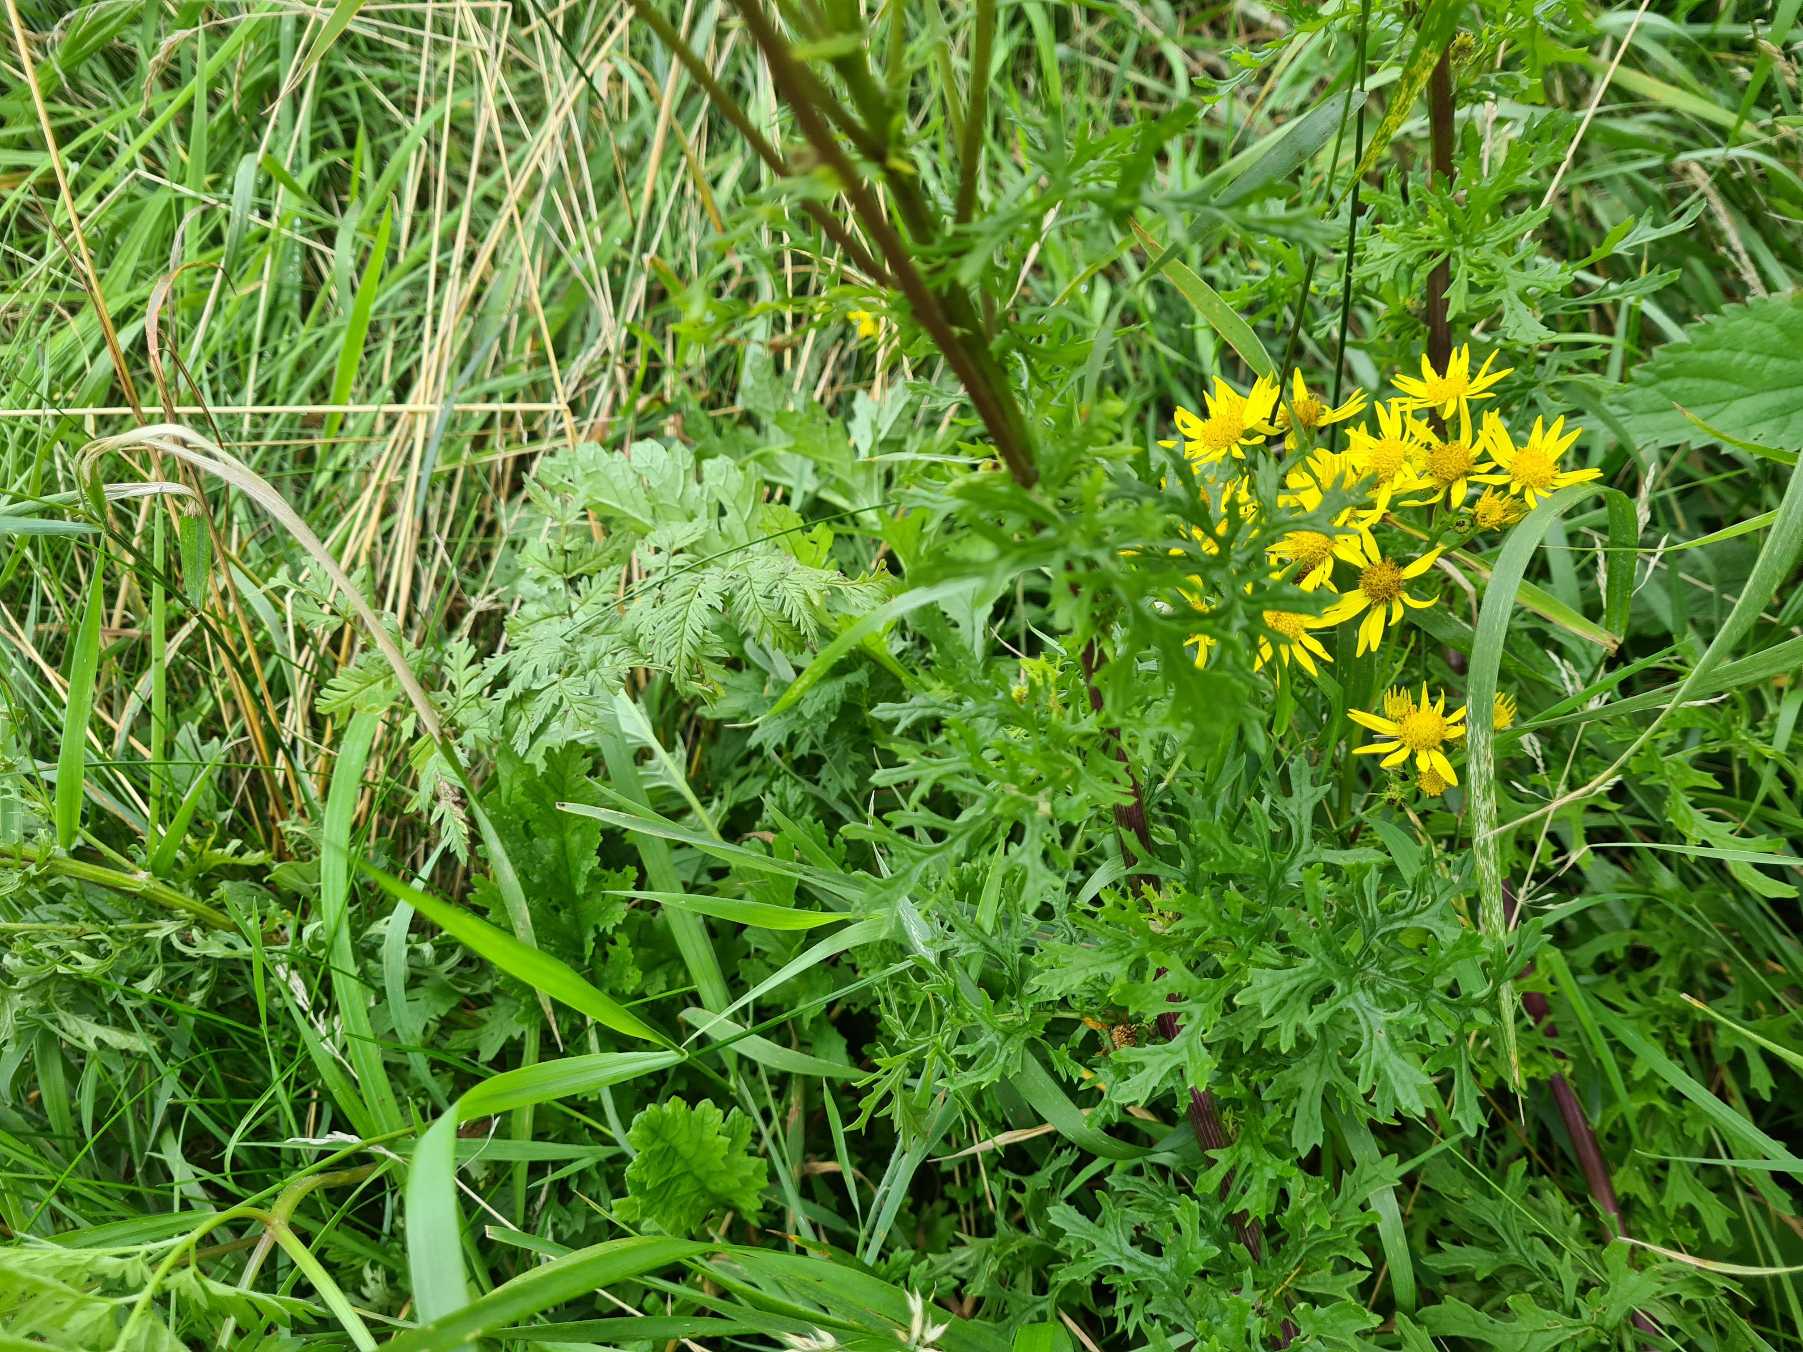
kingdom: Plantae
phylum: Tracheophyta
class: Magnoliopsida
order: Asterales
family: Asteraceae
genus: Jacobaea
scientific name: Jacobaea vulgaris
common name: Eng-brandbæger
